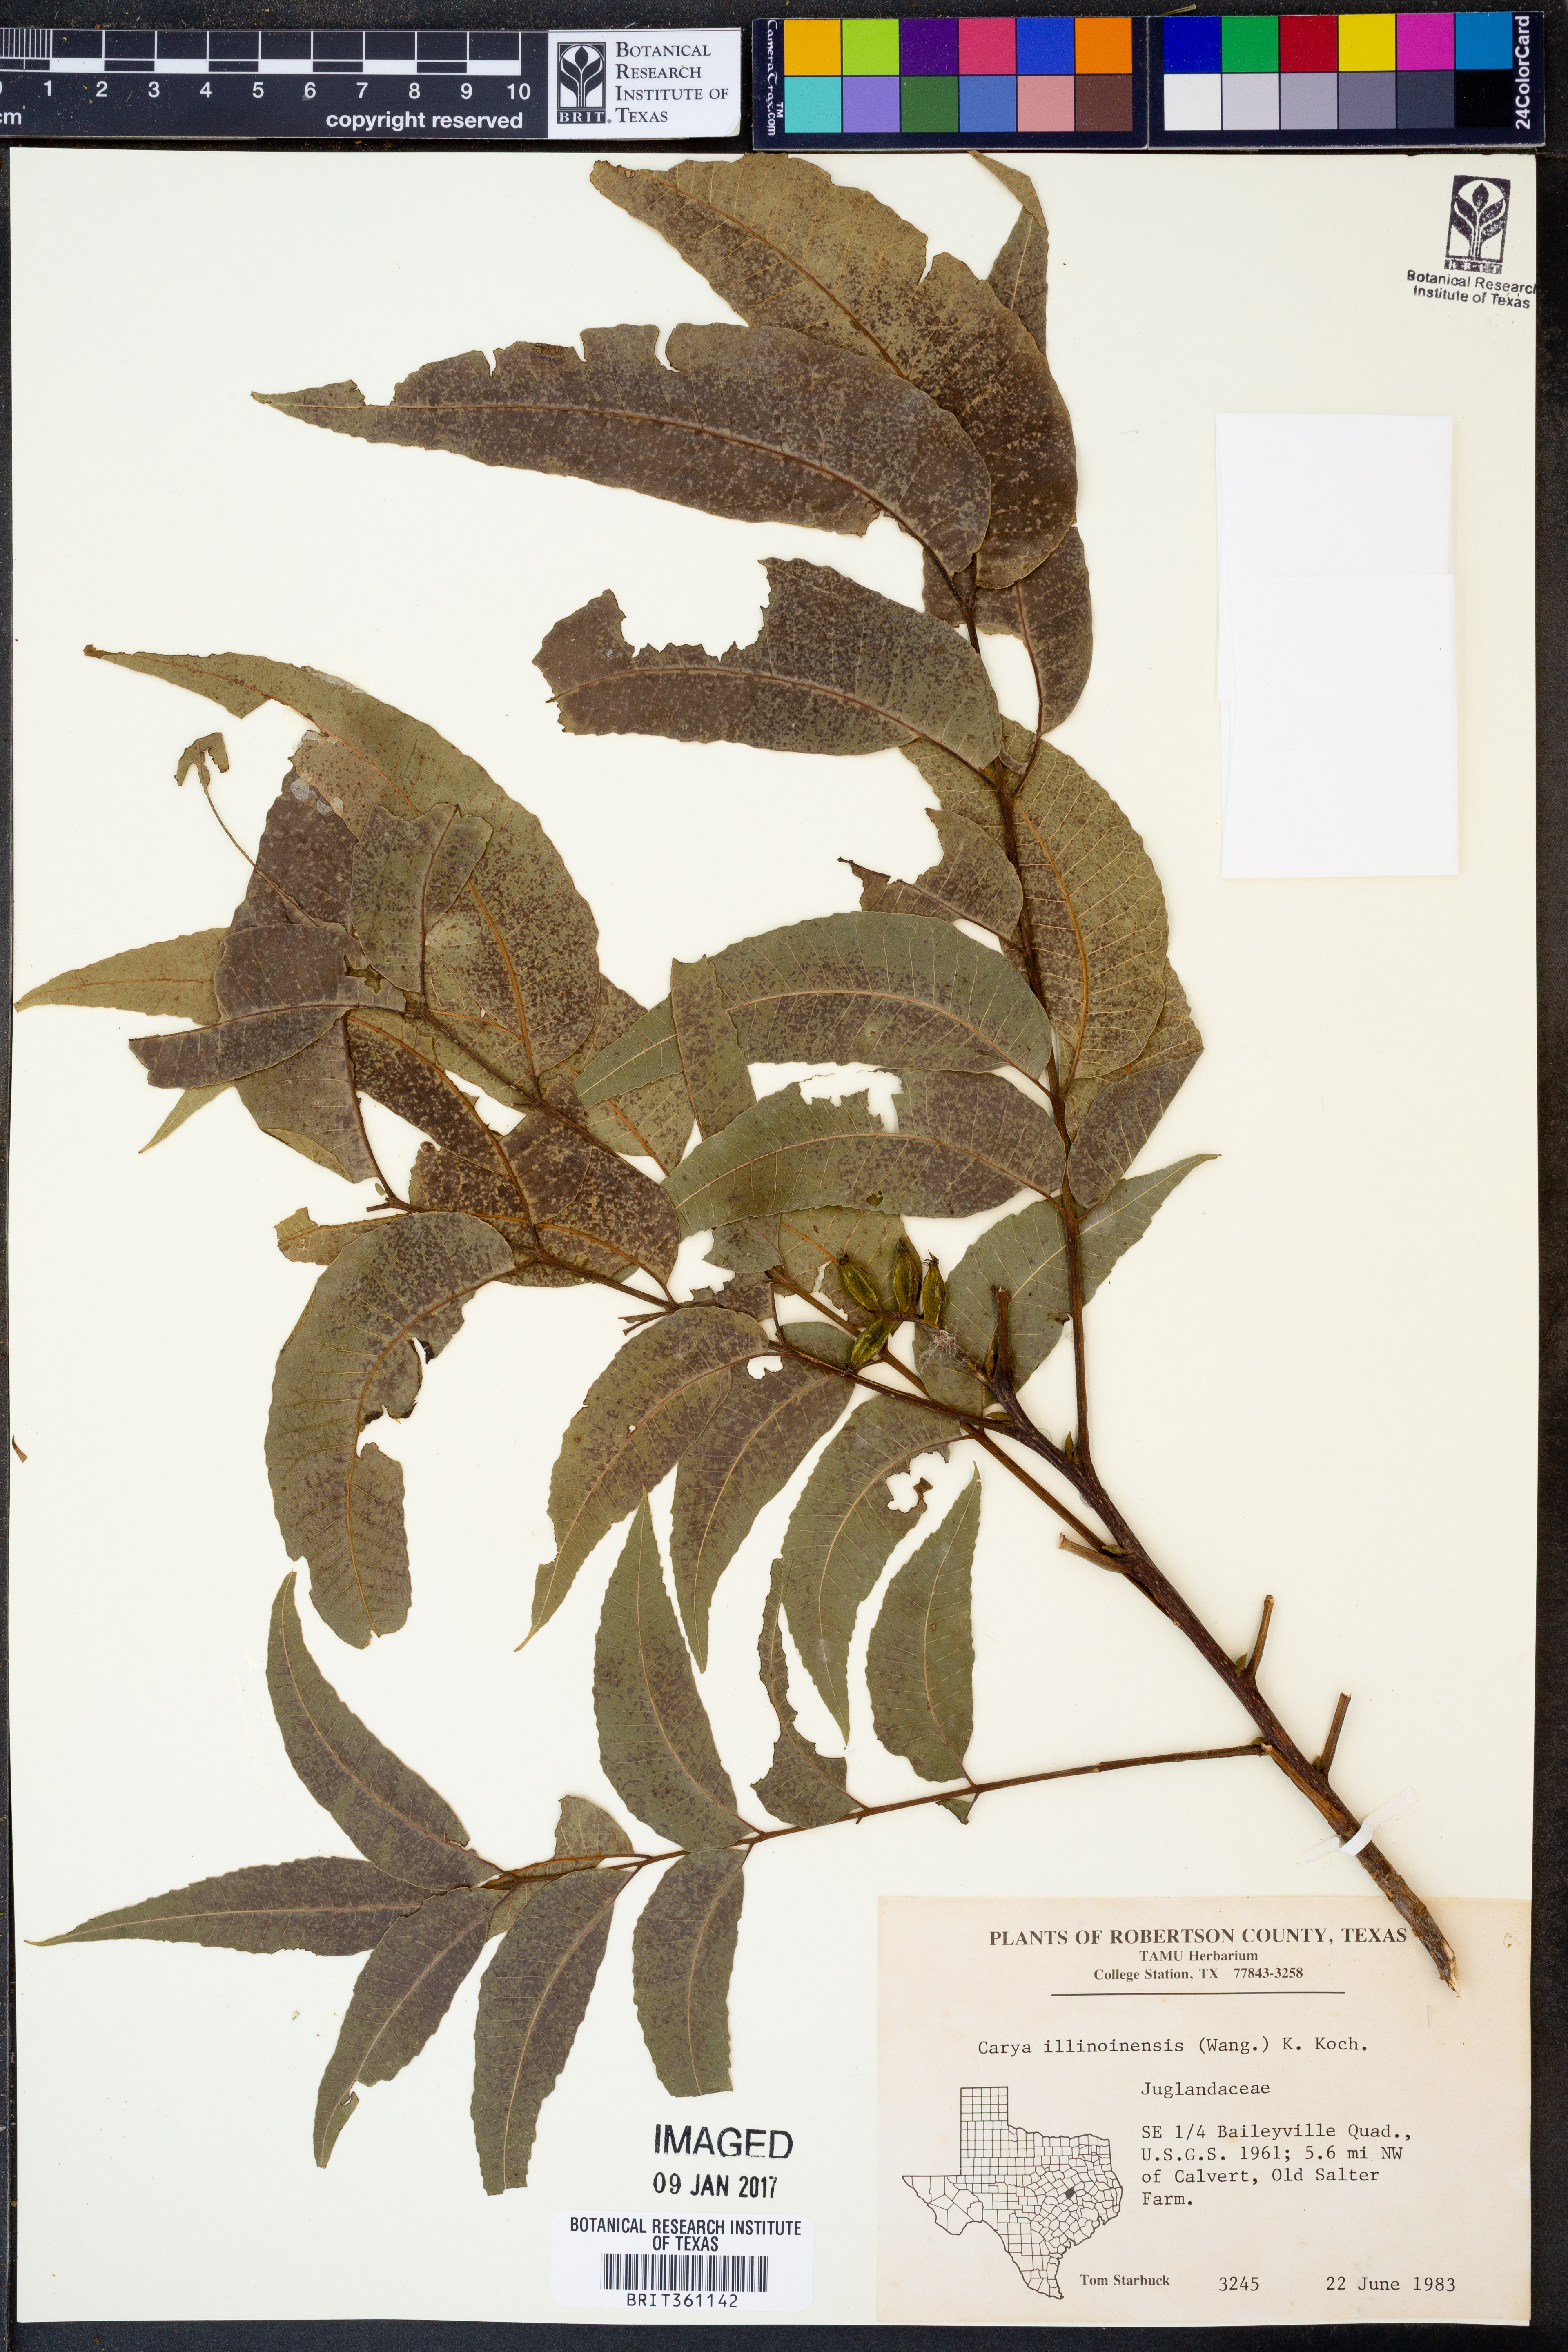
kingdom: Plantae
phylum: Tracheophyta
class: Magnoliopsida
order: Fagales
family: Juglandaceae
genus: Carya
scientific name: Carya illinoinensis
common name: Pecan
